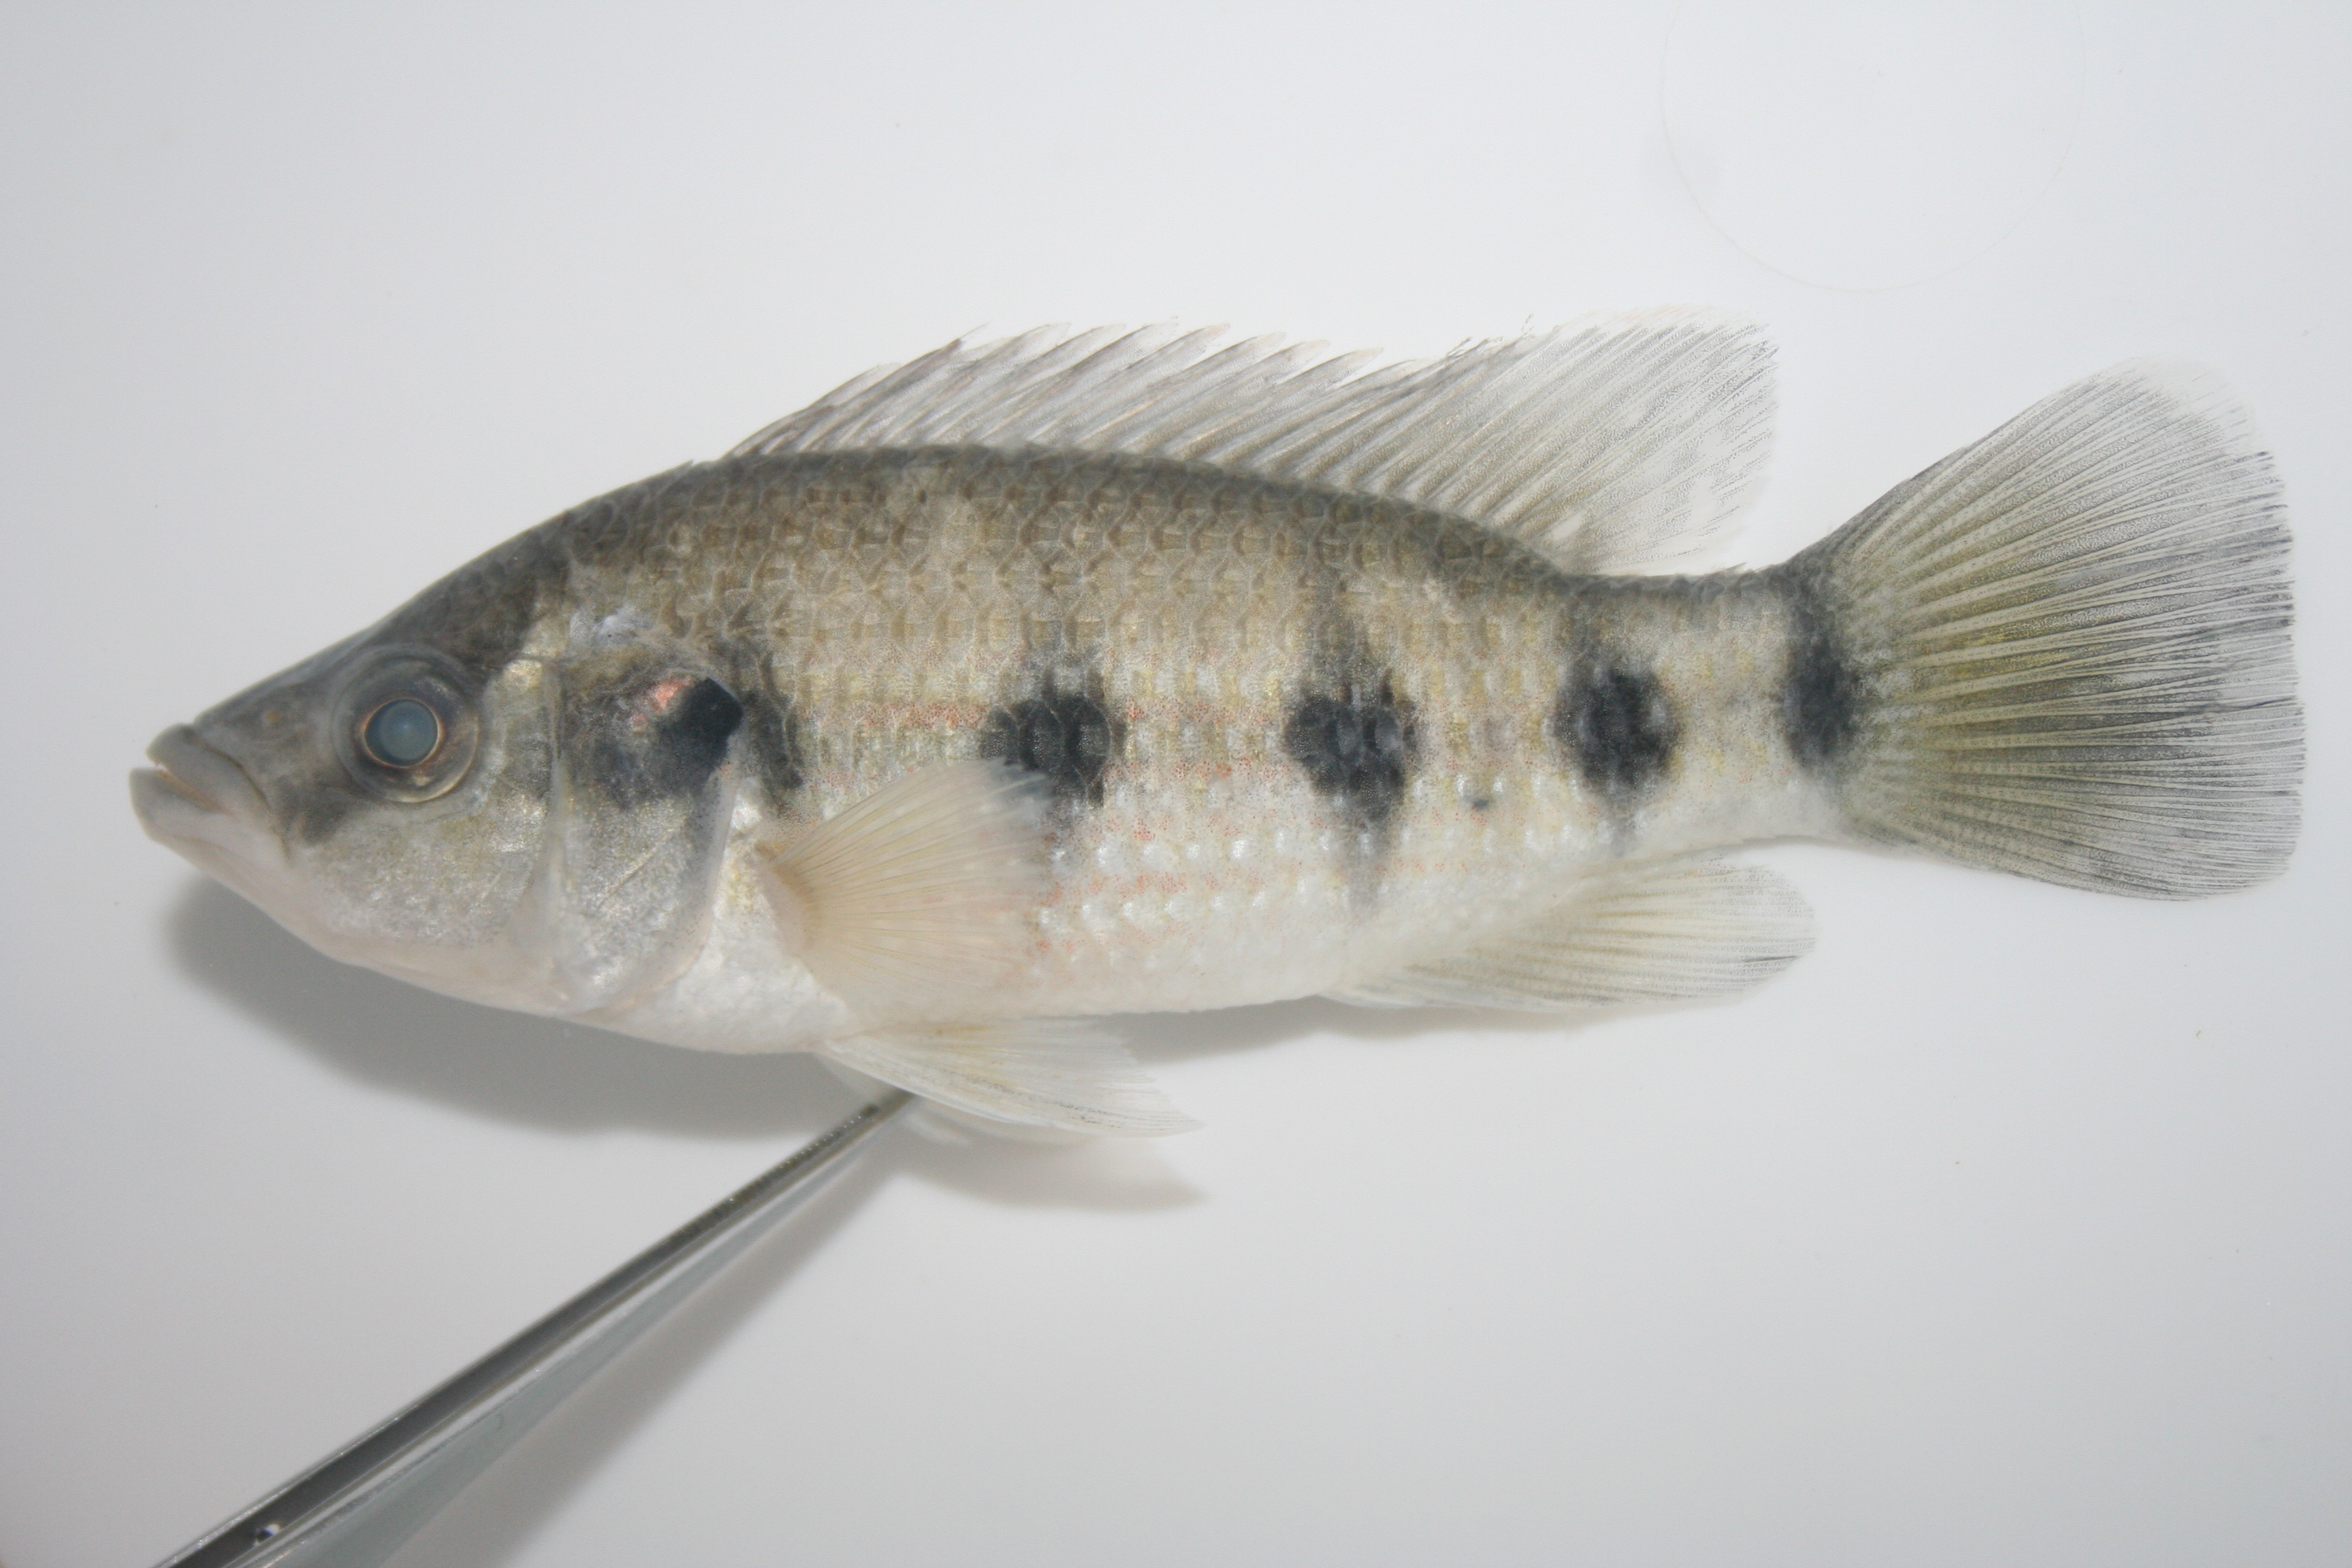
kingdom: Animalia
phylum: Chordata
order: Perciformes
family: Cichlidae
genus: Hemichromis
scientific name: Hemichromis angolensis
